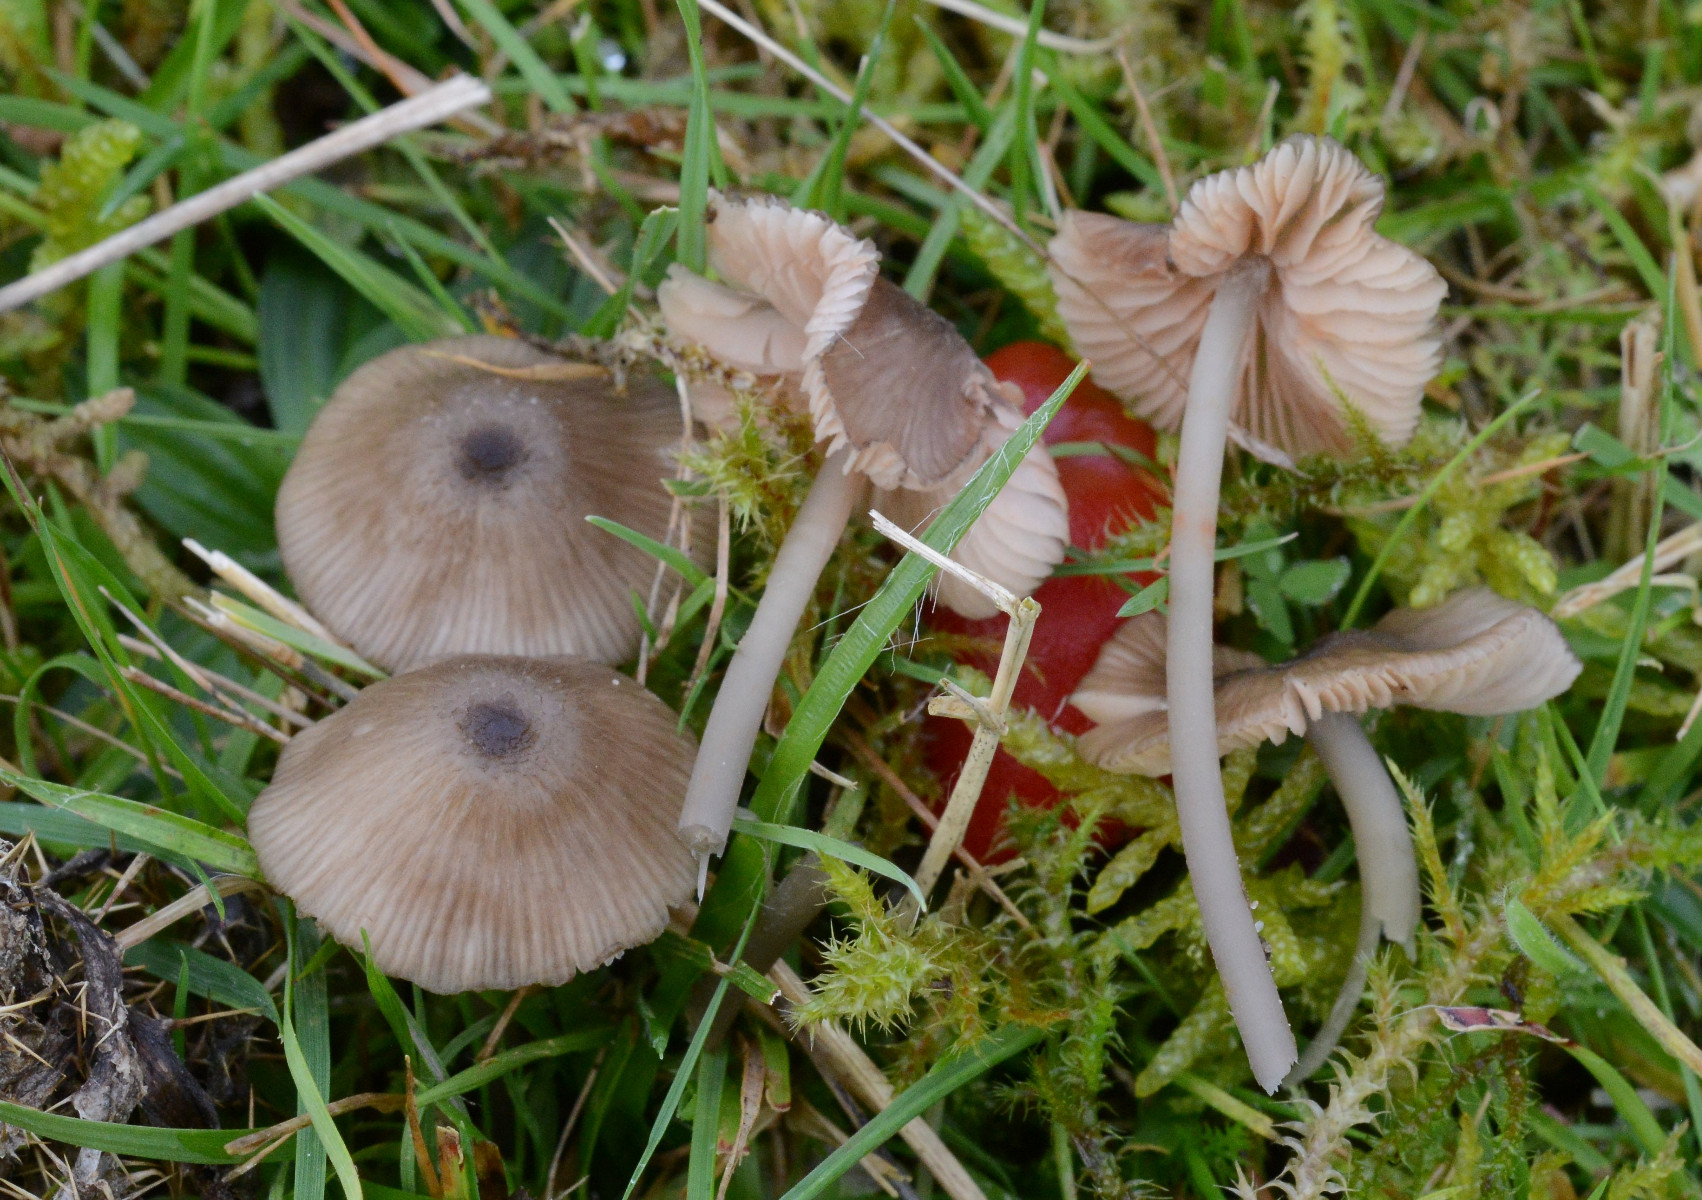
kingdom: Fungi
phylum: Basidiomycota
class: Agaricomycetes
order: Agaricales
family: Entolomataceae
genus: Entoloma
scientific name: Entoloma exile
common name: rødplettet rødblad
